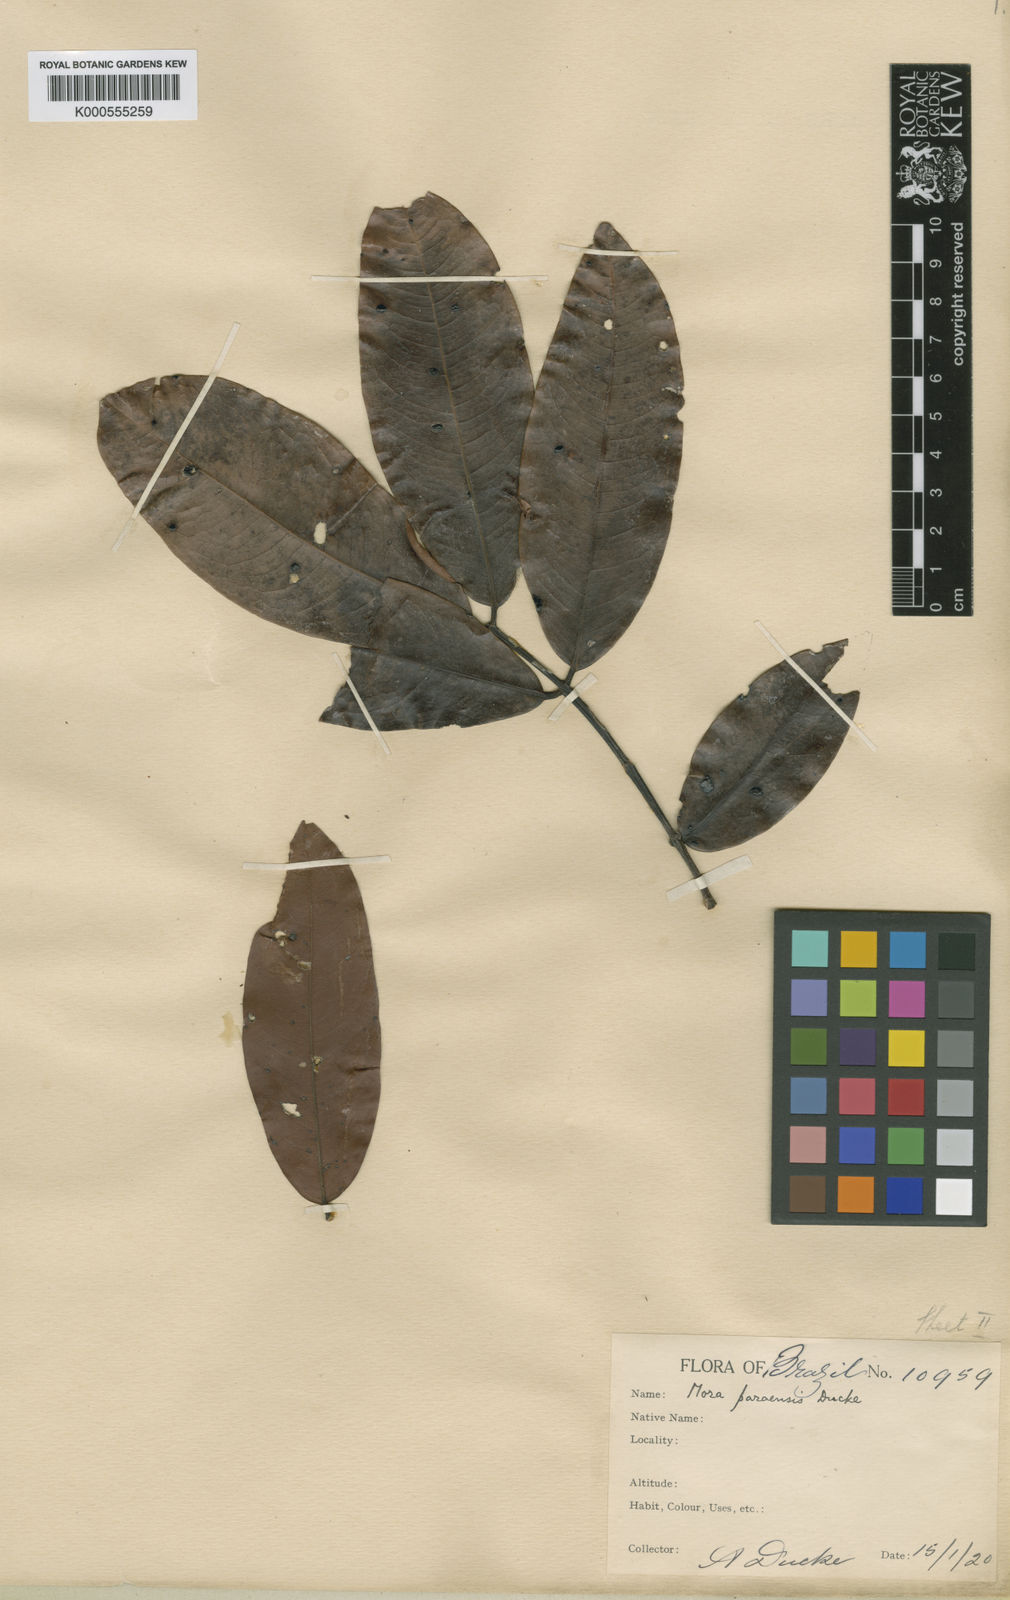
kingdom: Plantae
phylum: Tracheophyta
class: Magnoliopsida
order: Fabales
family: Fabaceae
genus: Mora
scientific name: Mora paraensis
